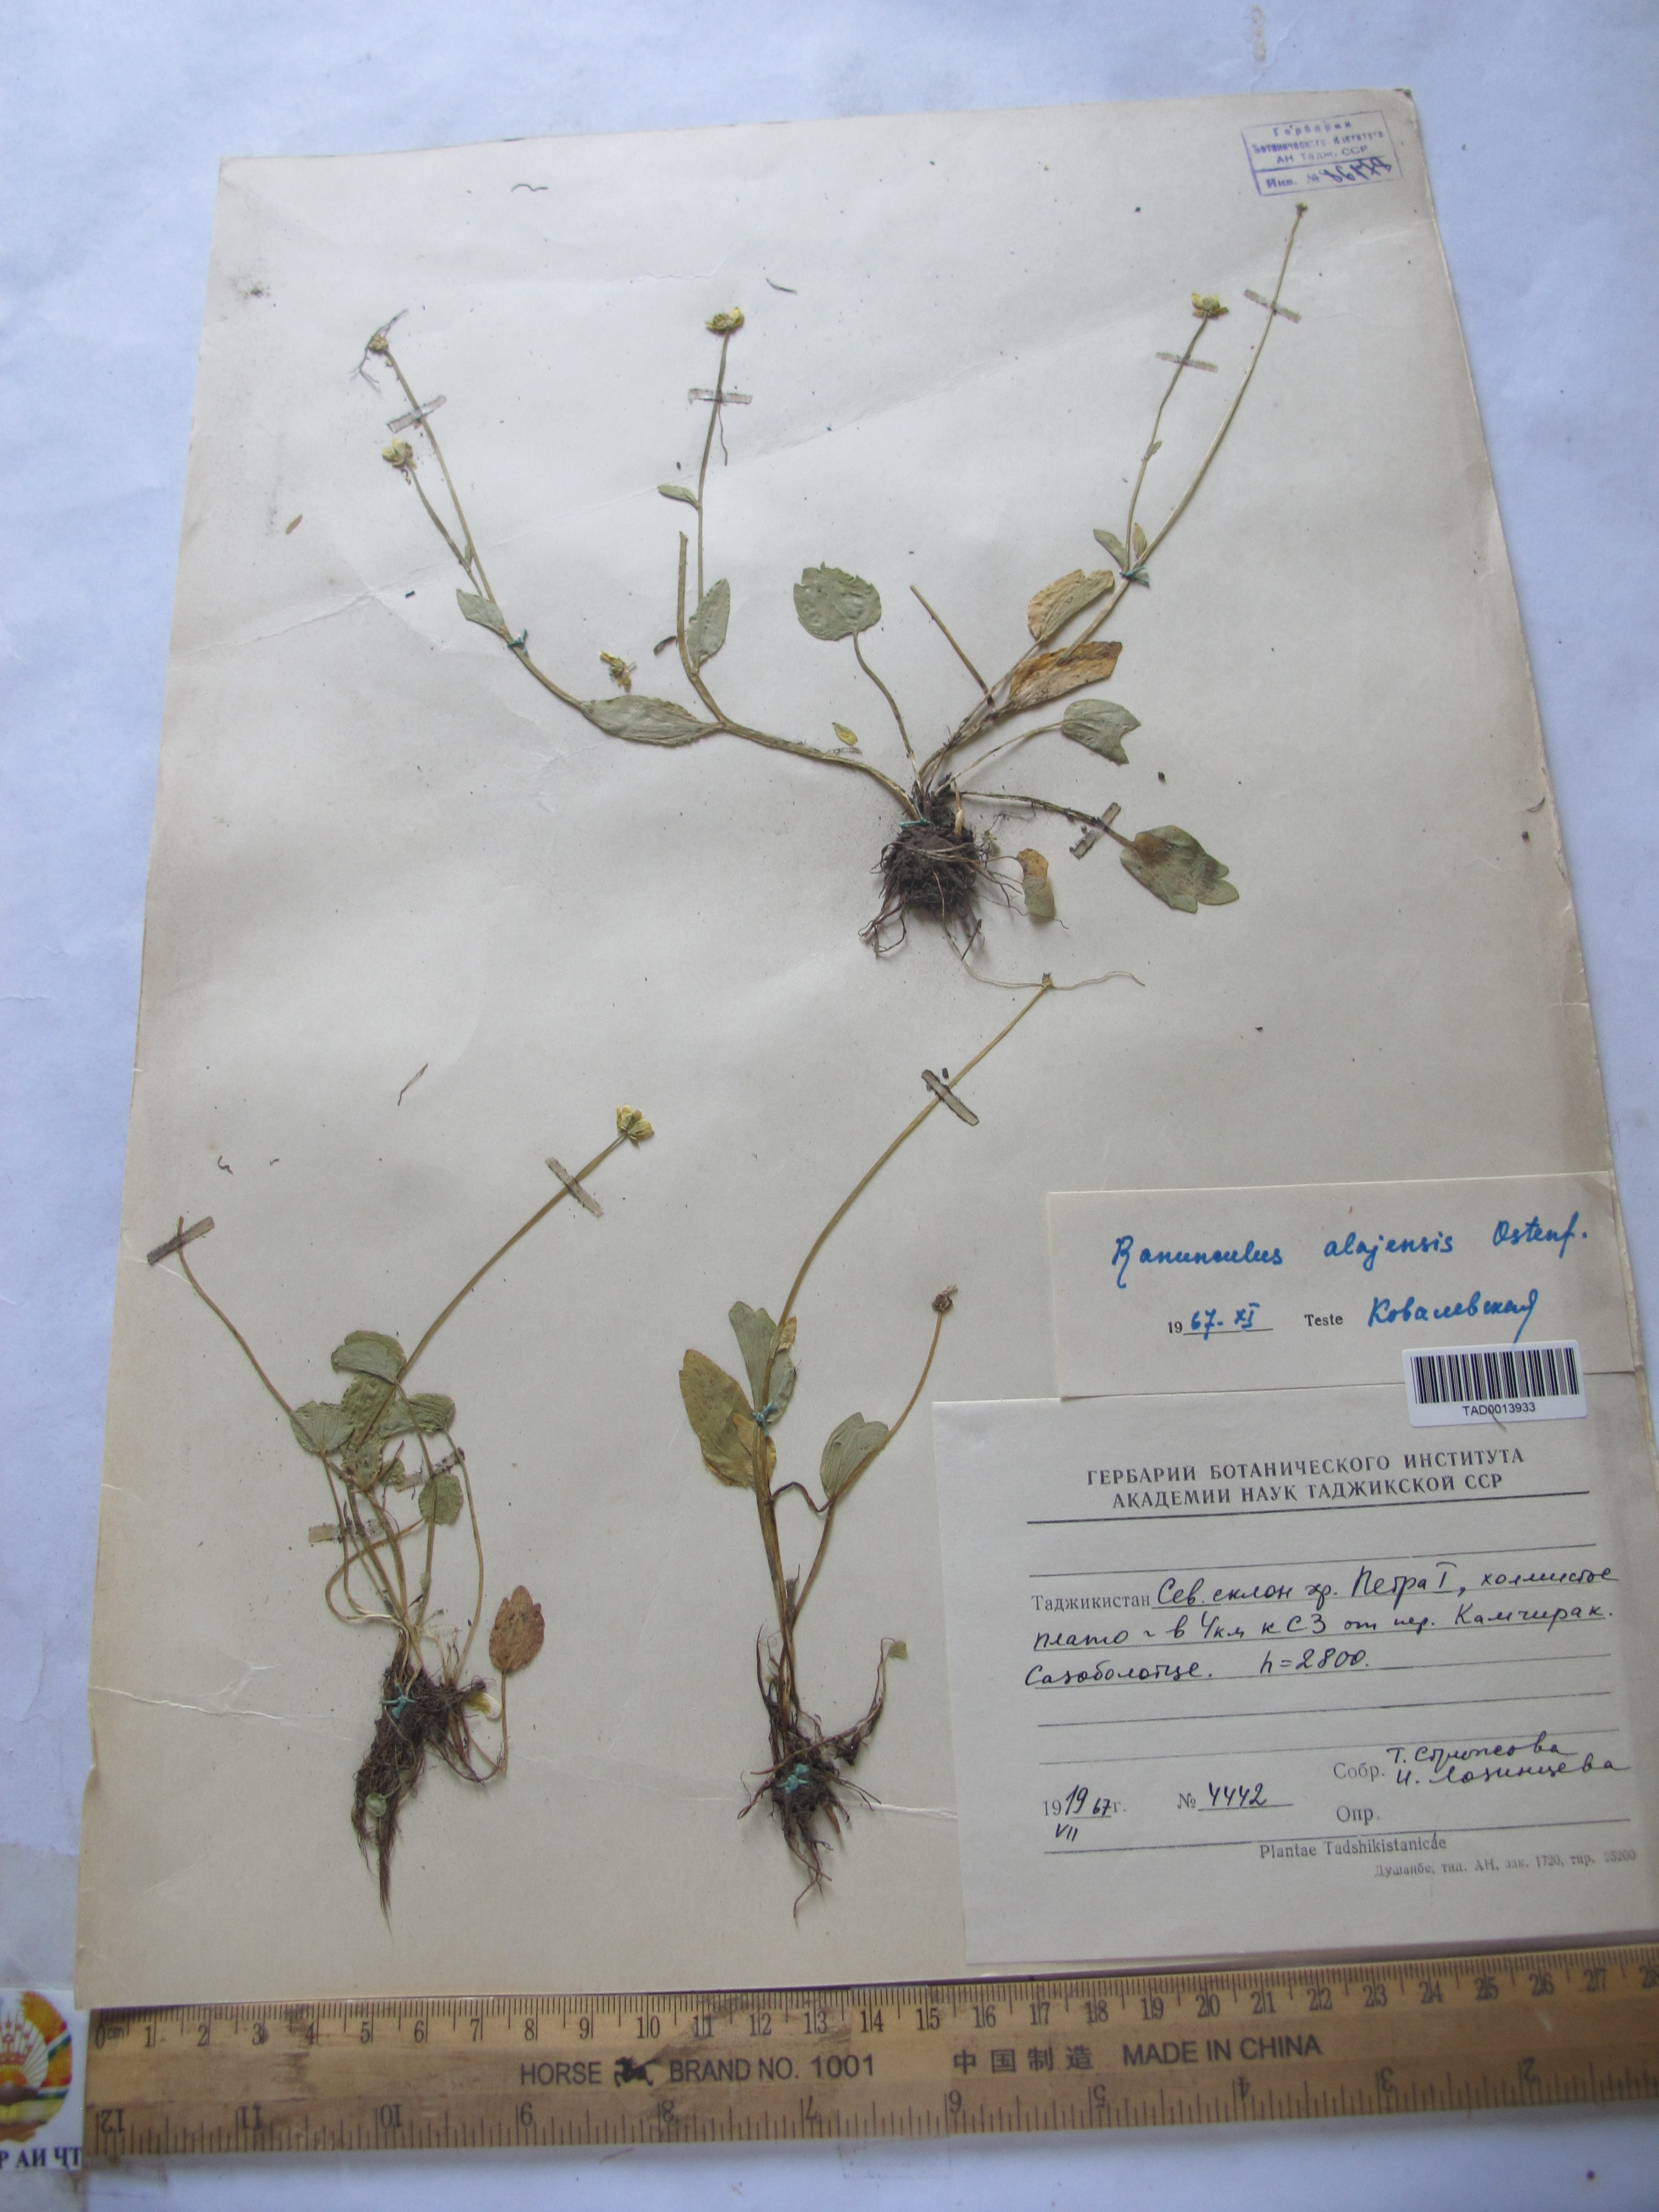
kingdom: Plantae
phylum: Tracheophyta
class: Magnoliopsida
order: Ranunculales
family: Ranunculaceae
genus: Ranunculus
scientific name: Ranunculus alaiensis
